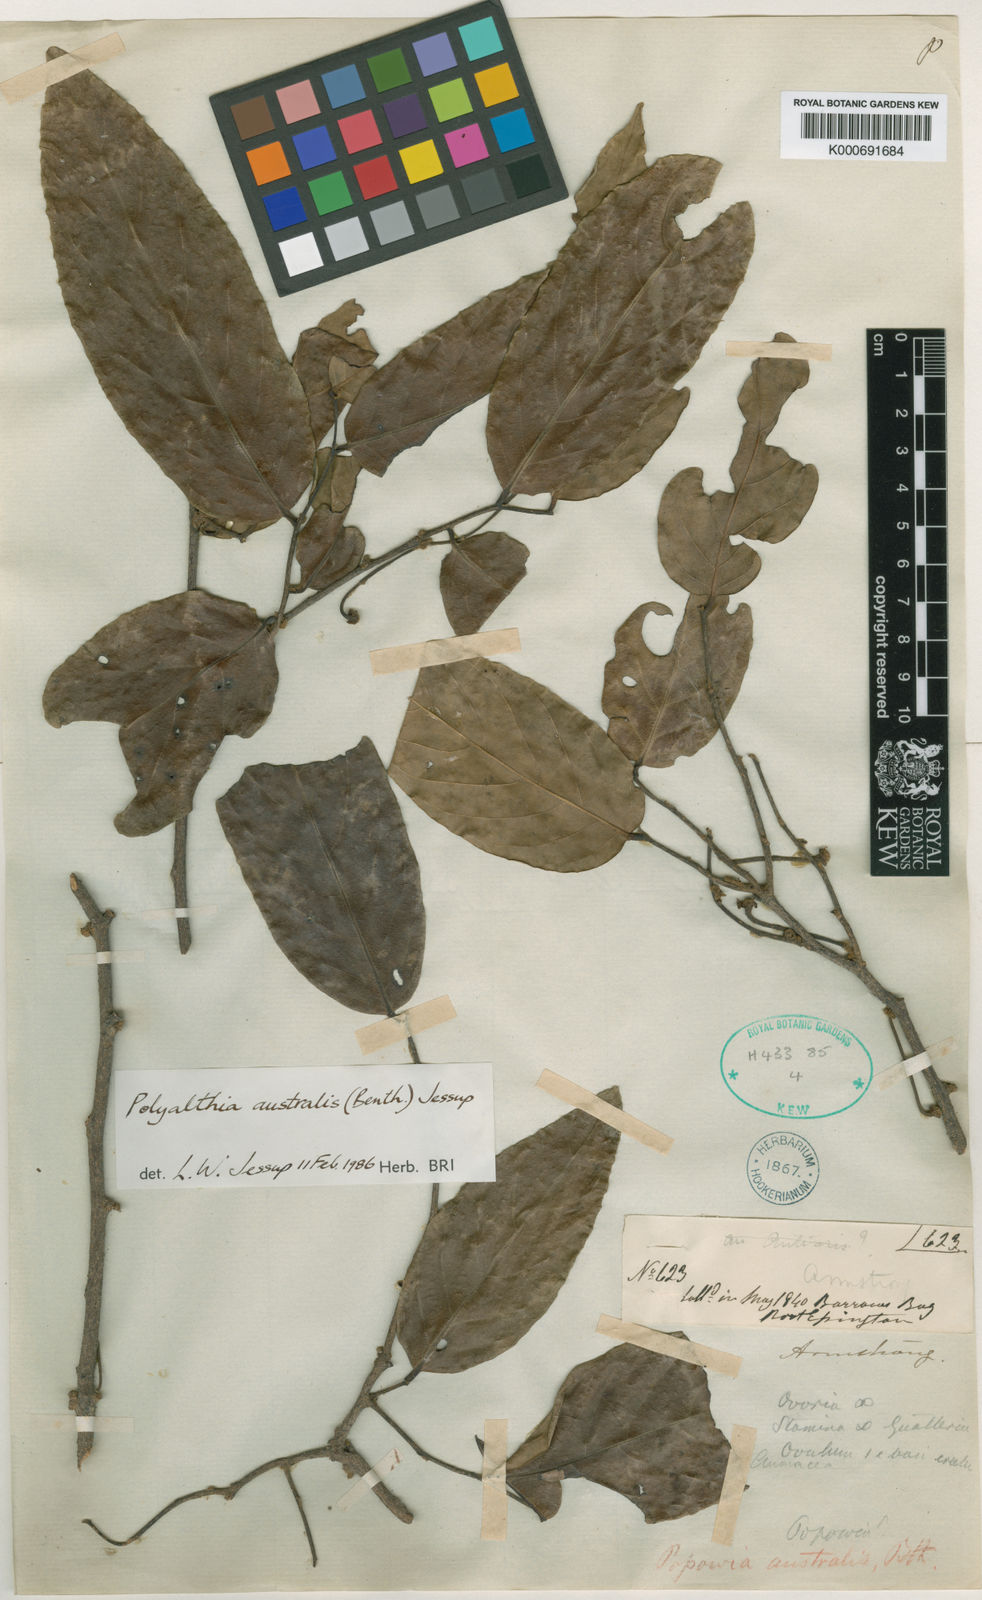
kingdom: Plantae
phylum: Tracheophyta
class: Magnoliopsida
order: Magnoliales
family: Annonaceae
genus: Polyalthia
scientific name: Polyalthia australis
